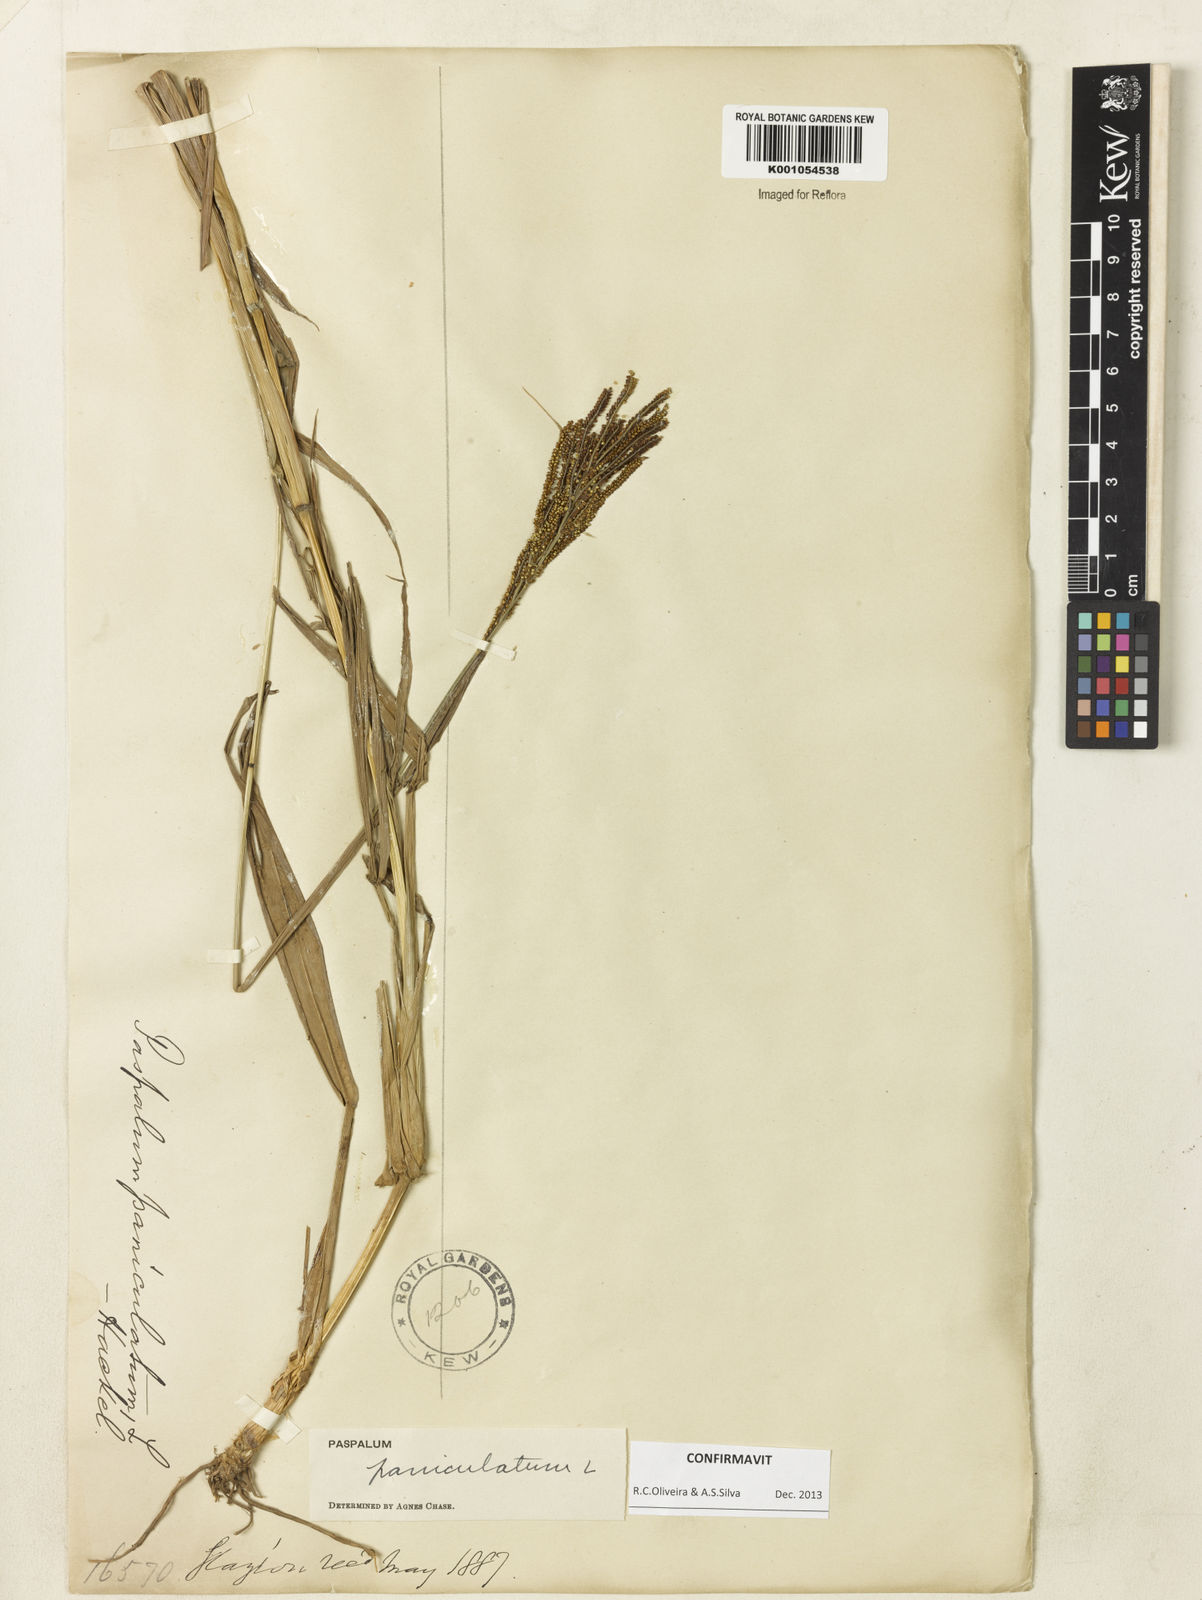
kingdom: Plantae
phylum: Tracheophyta
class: Liliopsida
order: Poales
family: Poaceae
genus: Paspalum
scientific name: Paspalum paniculatum
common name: Arrocillo
